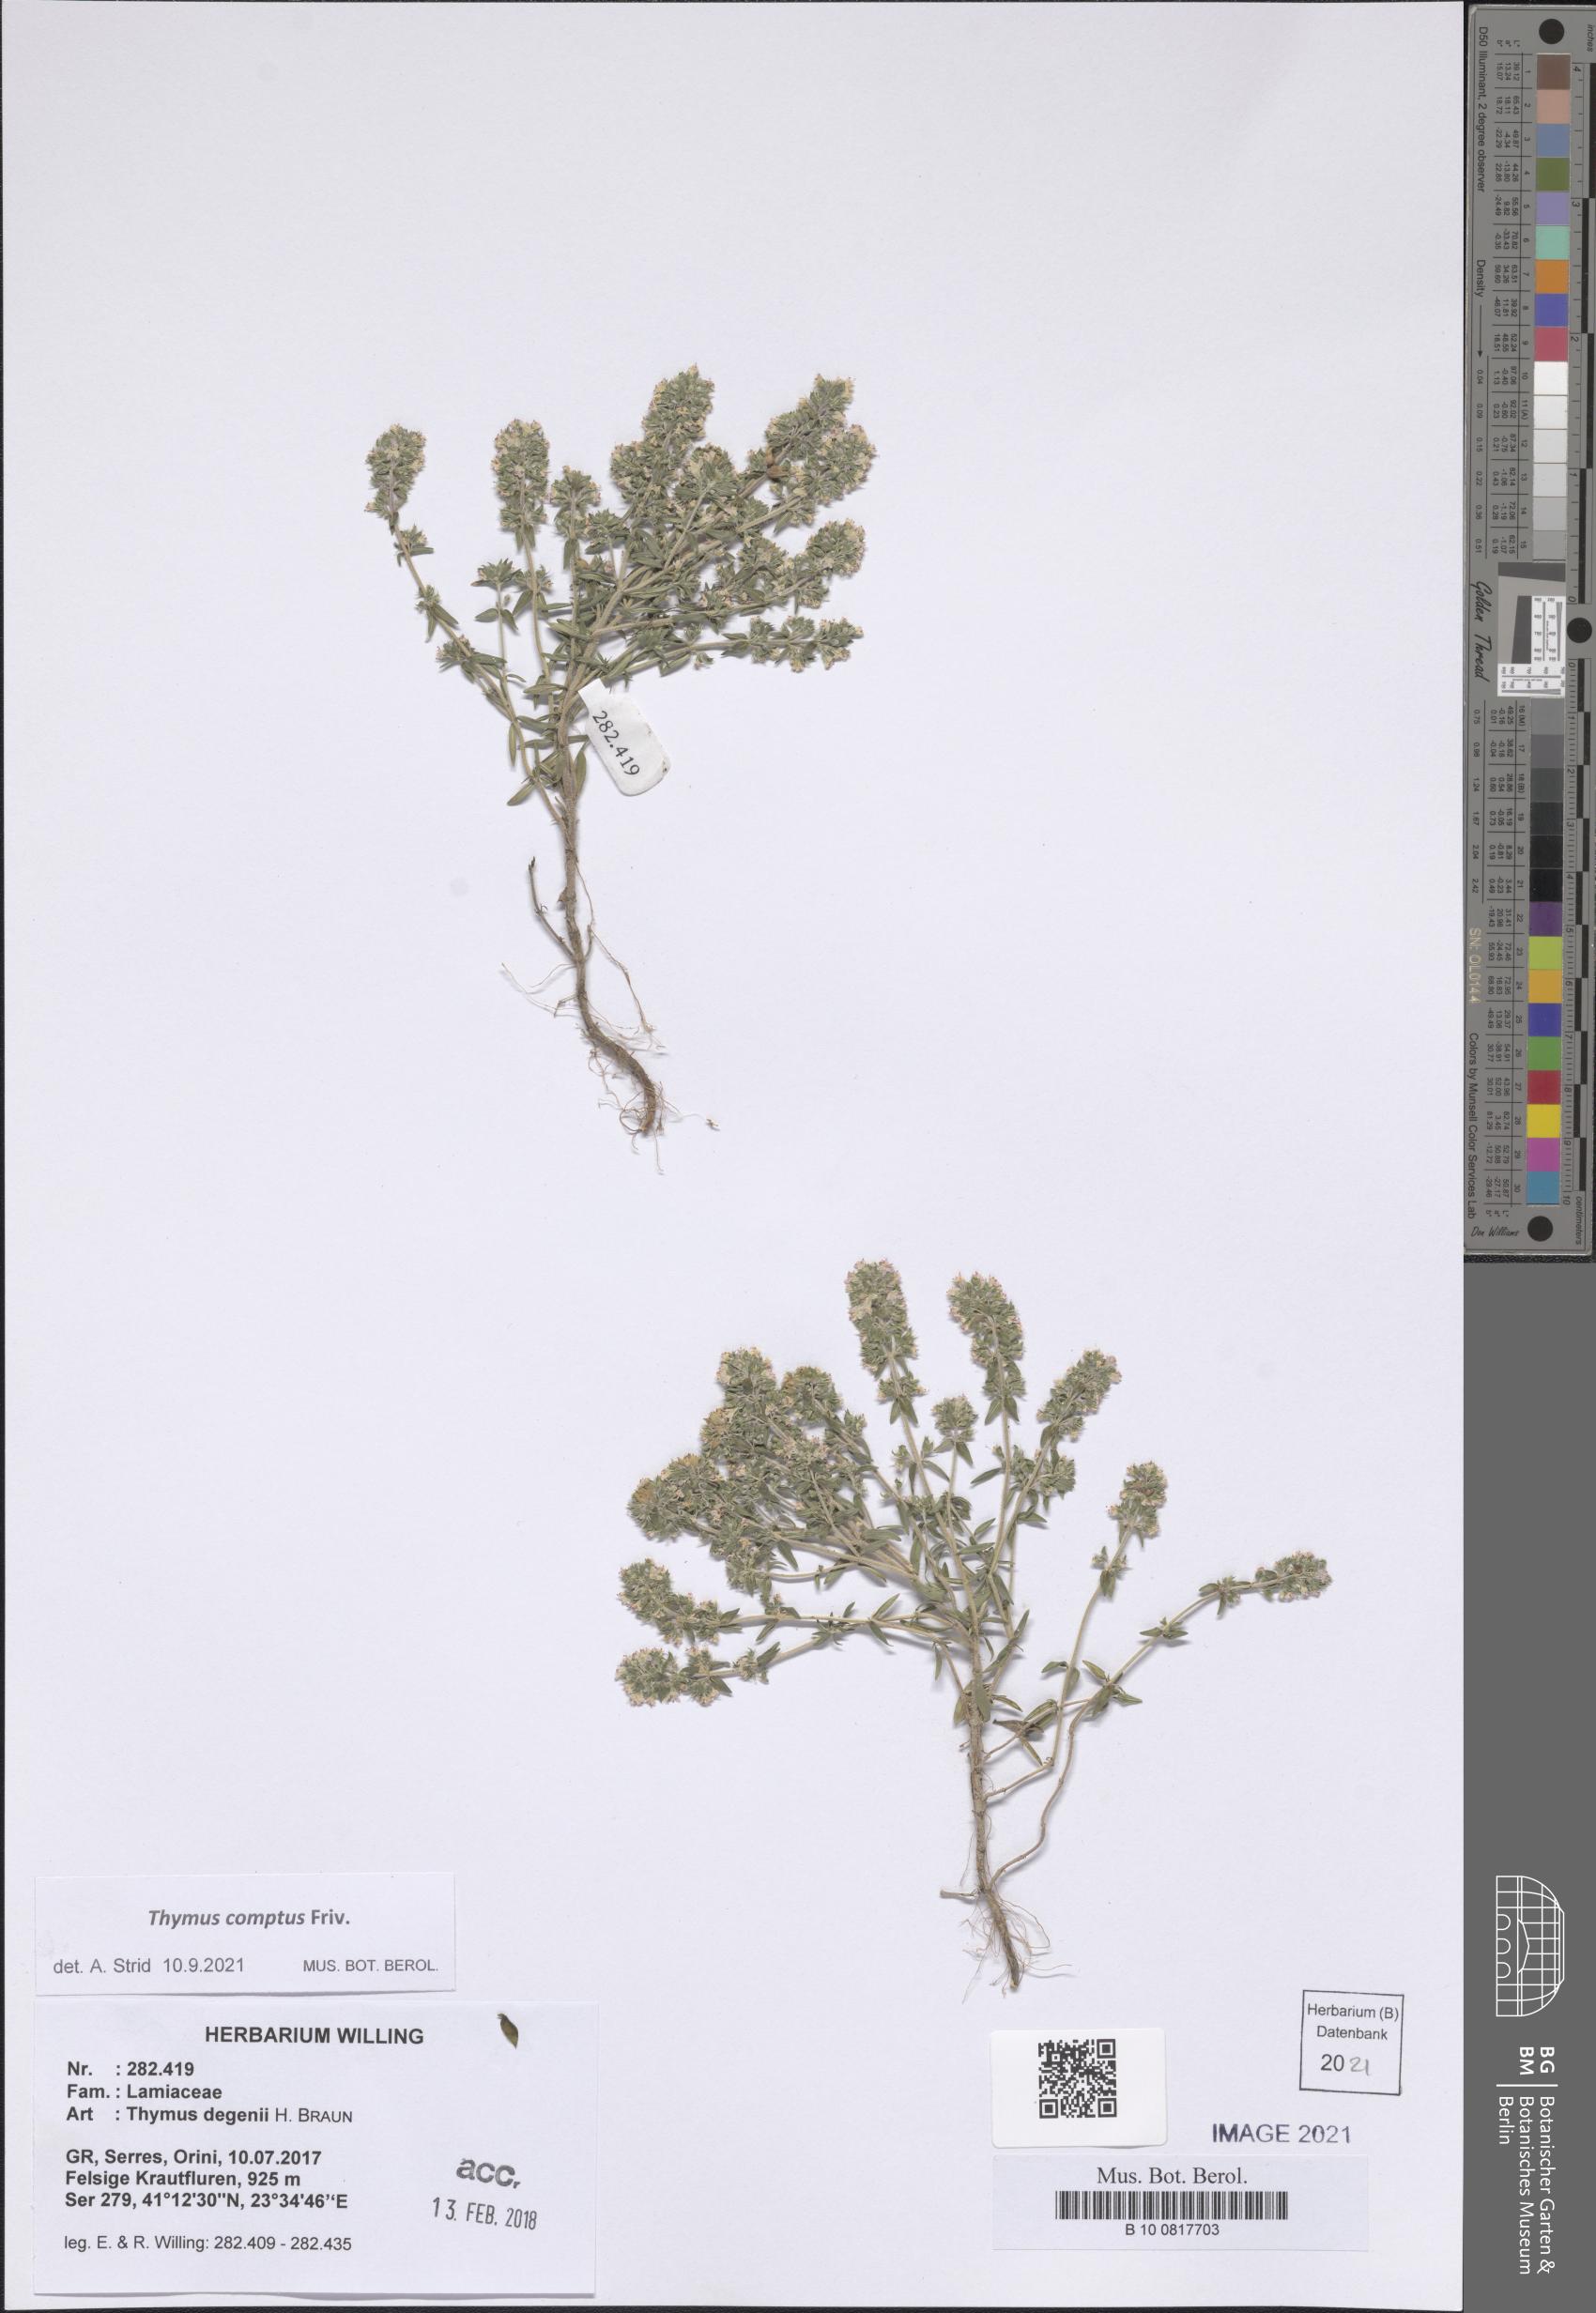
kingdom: Plantae
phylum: Tracheophyta
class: Magnoliopsida
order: Lamiales
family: Lamiaceae
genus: Thymus
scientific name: Thymus comptus
